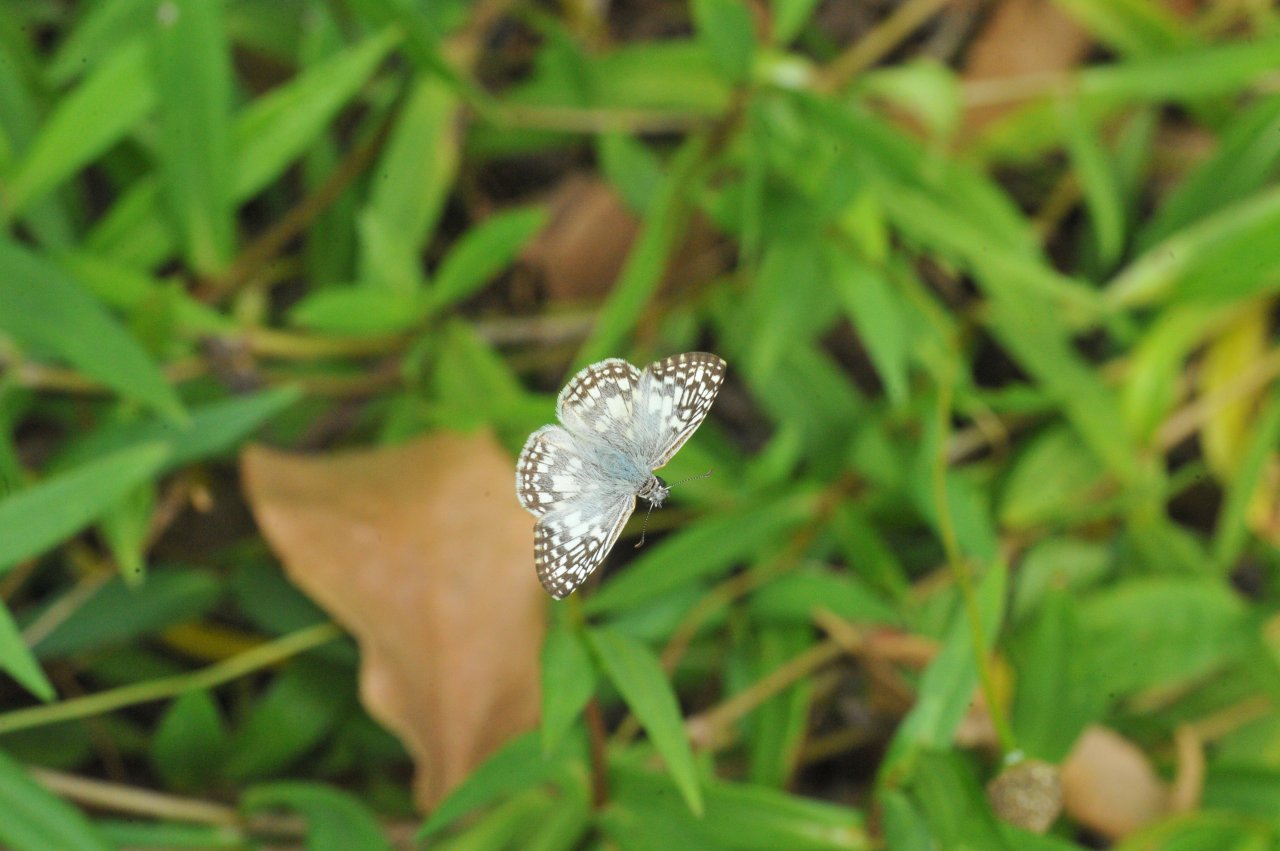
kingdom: Animalia
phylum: Arthropoda
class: Insecta
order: Lepidoptera
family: Hesperiidae
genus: Pyrgus
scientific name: Pyrgus oileus
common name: Tropical Checkered-Skipper
